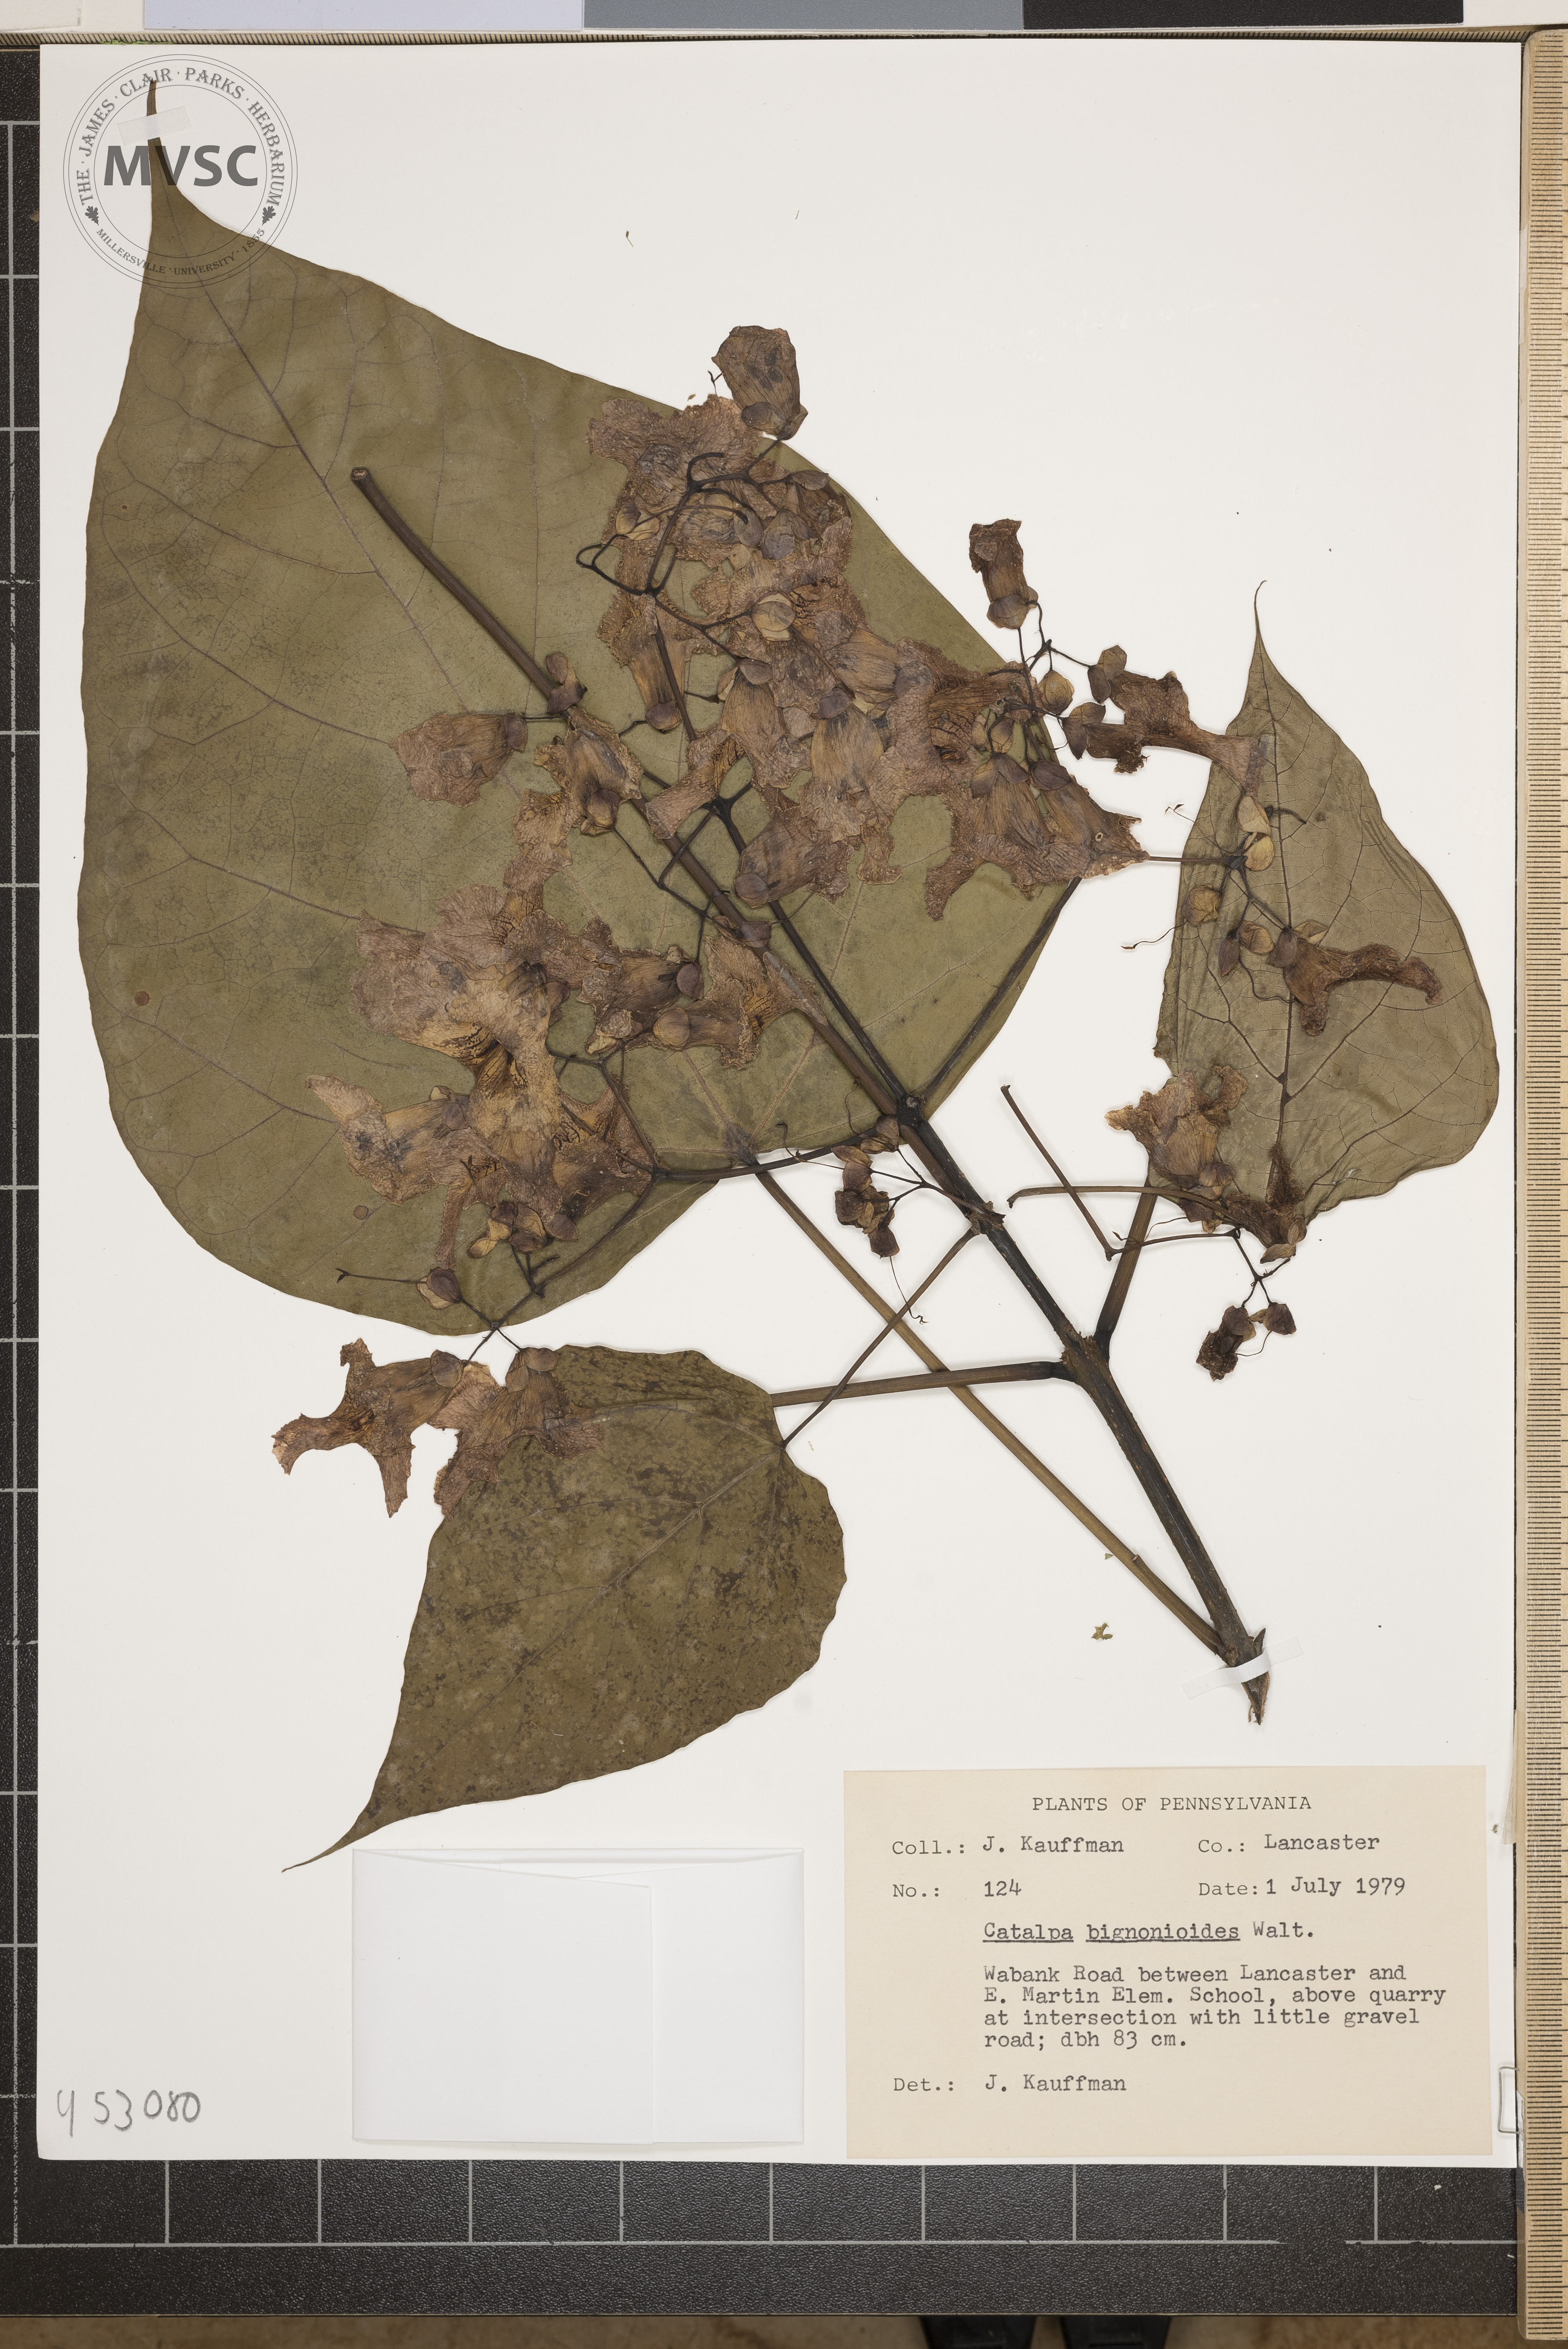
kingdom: Plantae
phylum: Tracheophyta
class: Magnoliopsida
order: Lamiales
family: Bignoniaceae
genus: Catalpa
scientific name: Catalpa bignonioides
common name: Southern catalpa
